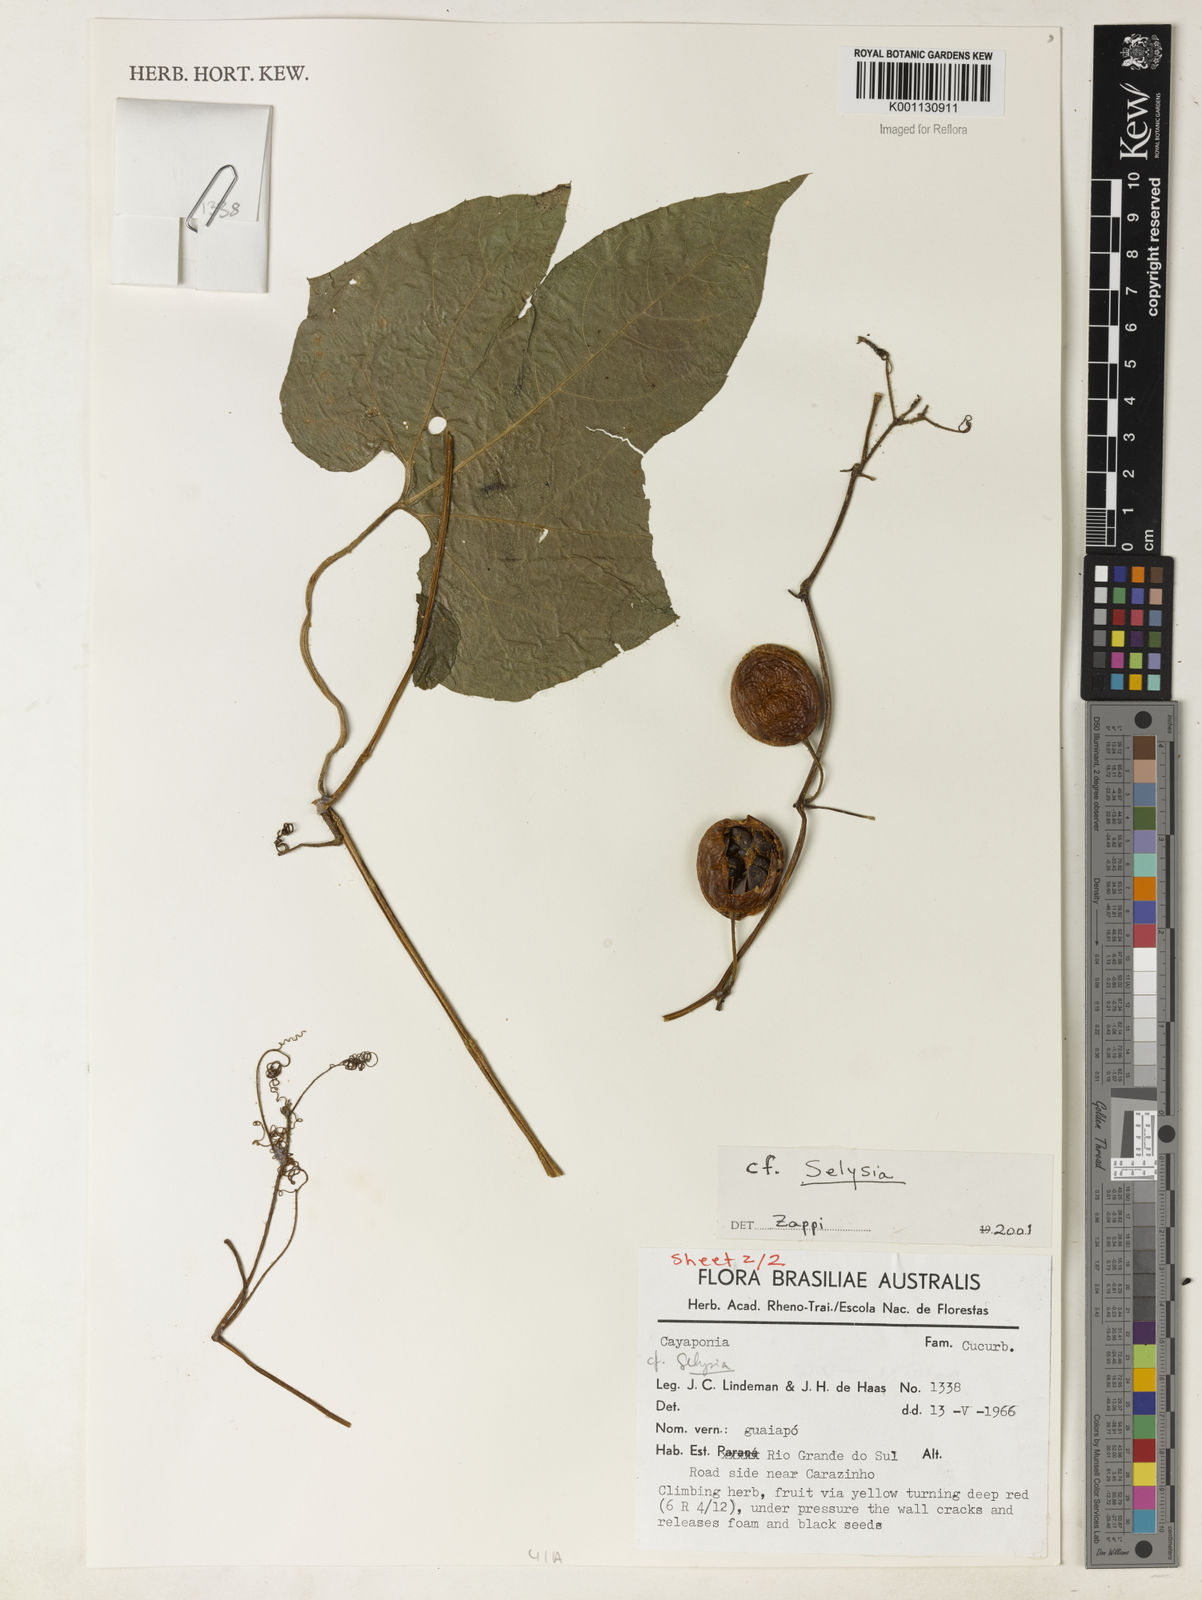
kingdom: Plantae
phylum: Tracheophyta
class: Magnoliopsida
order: Cucurbitales
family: Cucurbitaceae
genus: Selysia
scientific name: Selysia
